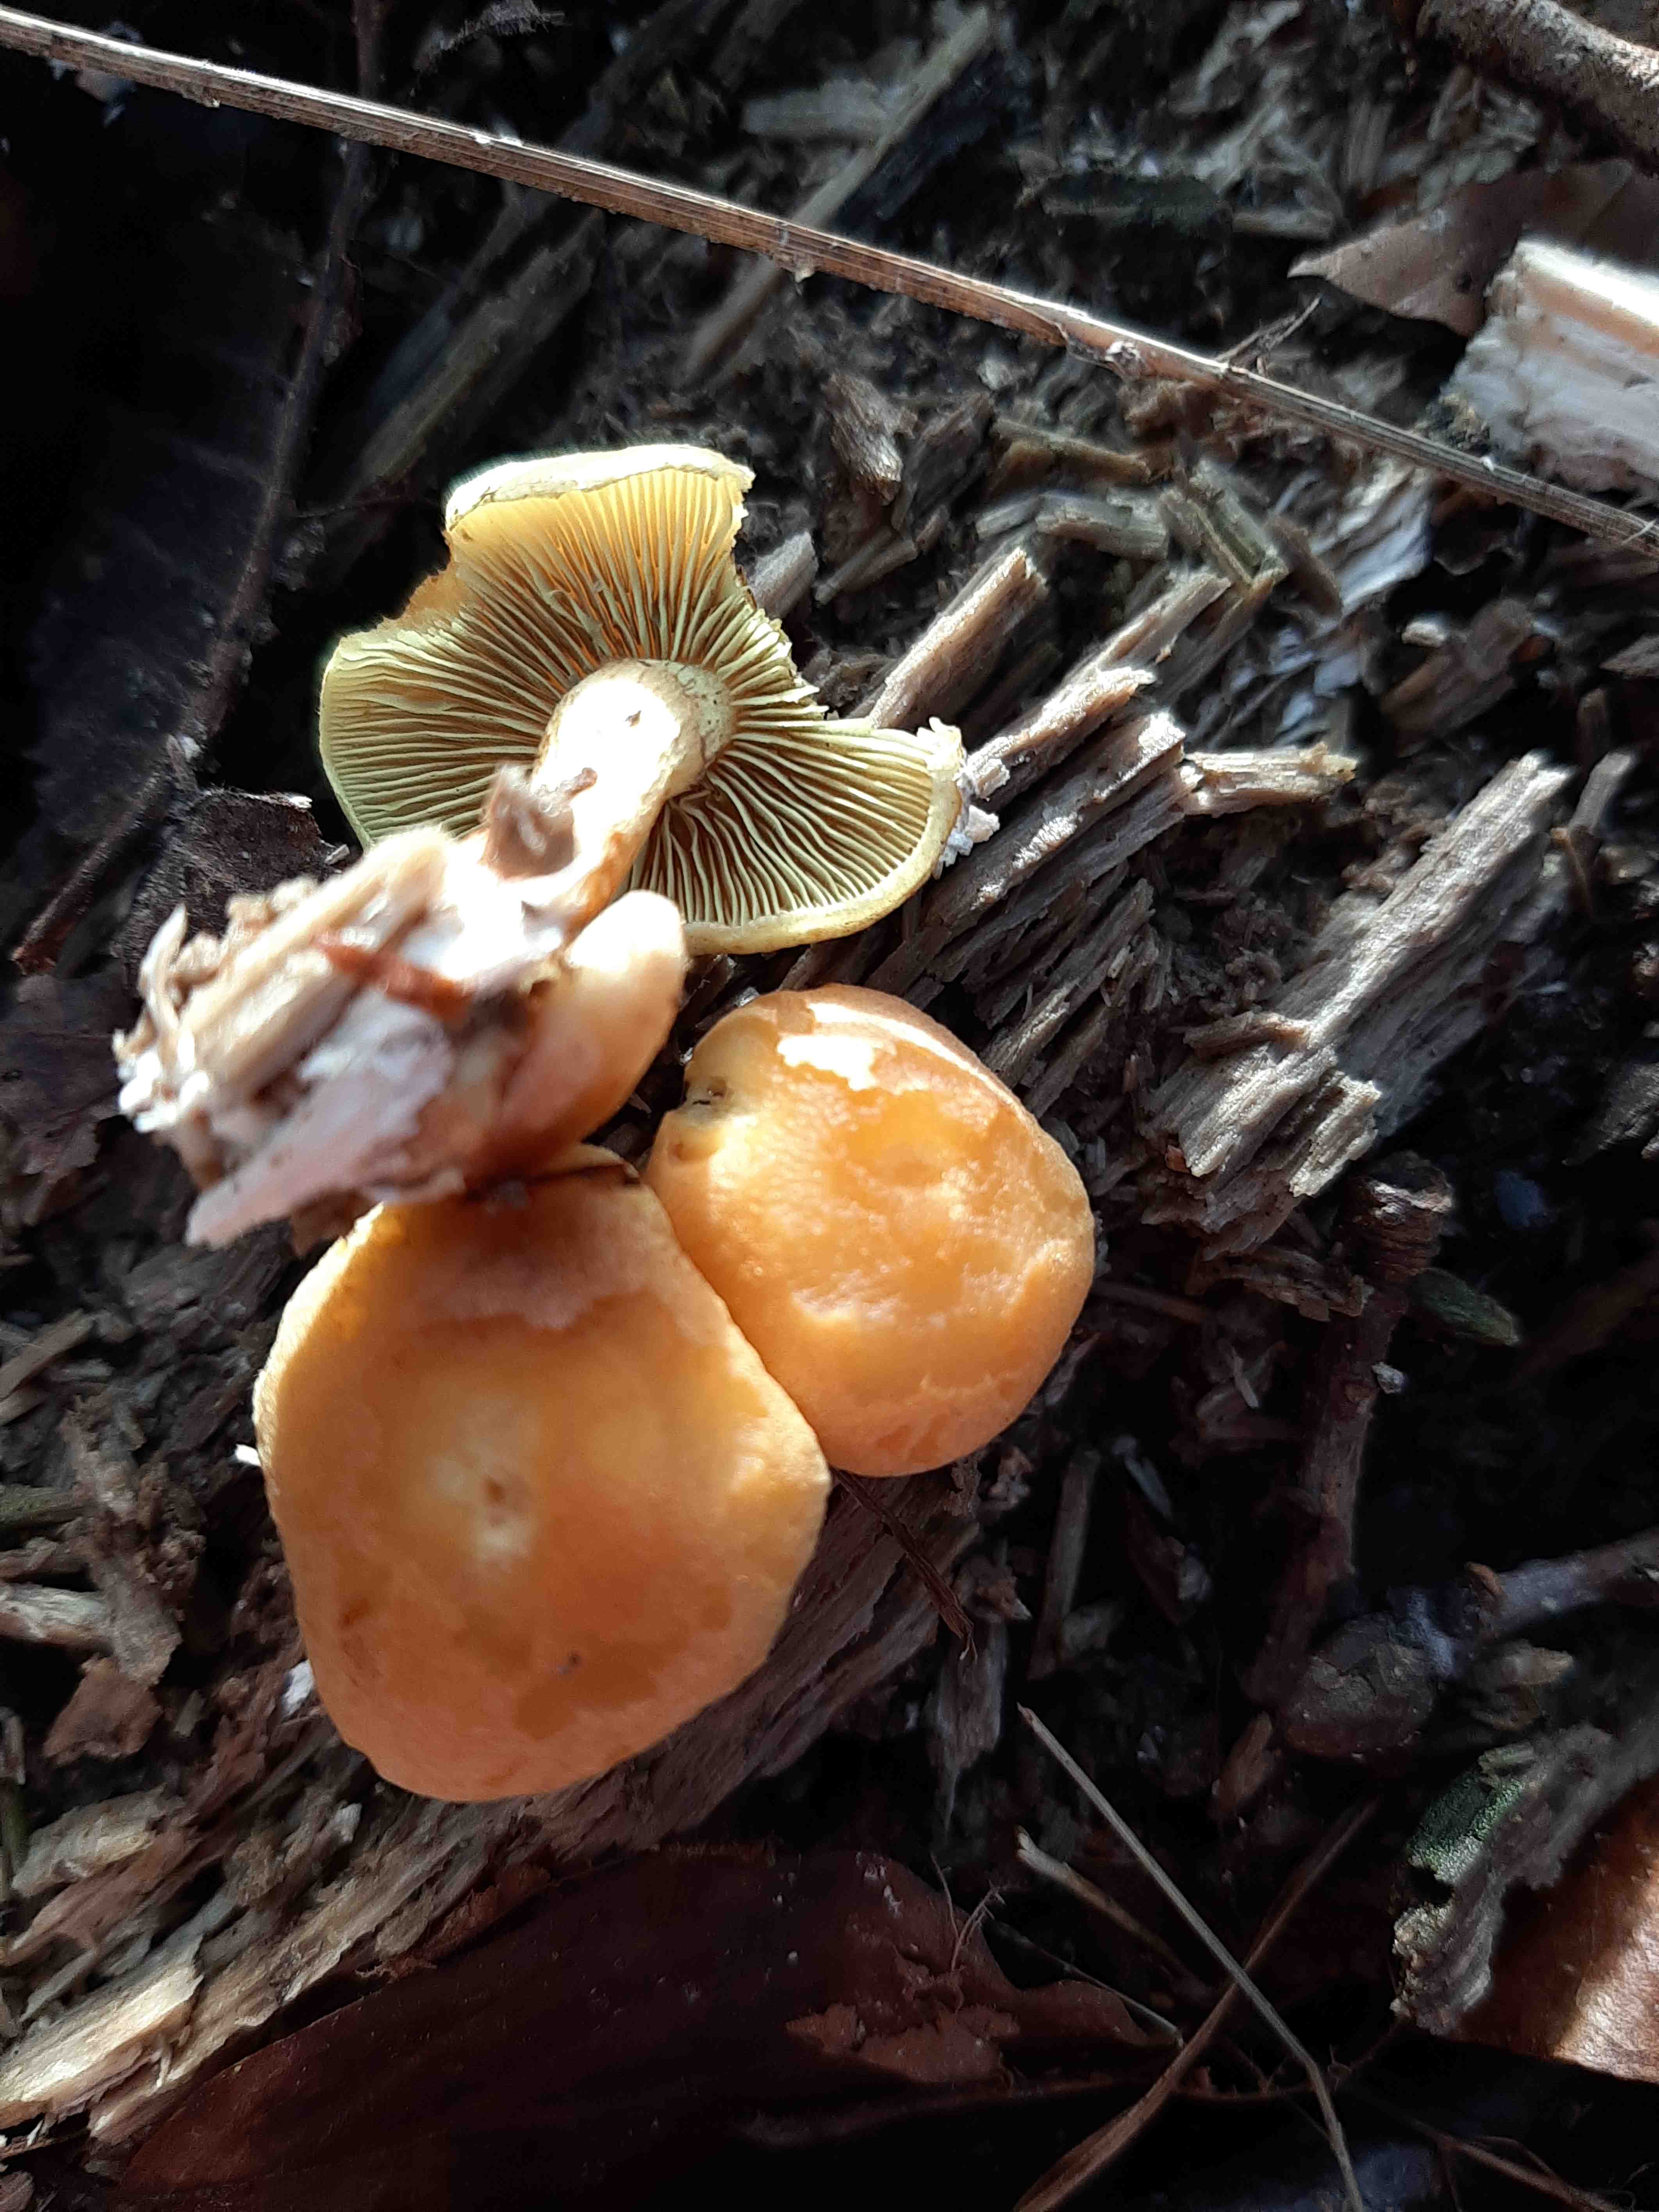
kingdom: Fungi
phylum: Basidiomycota
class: Agaricomycetes
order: Agaricales
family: Strophariaceae
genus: Hypholoma
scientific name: Hypholoma fasciculare
